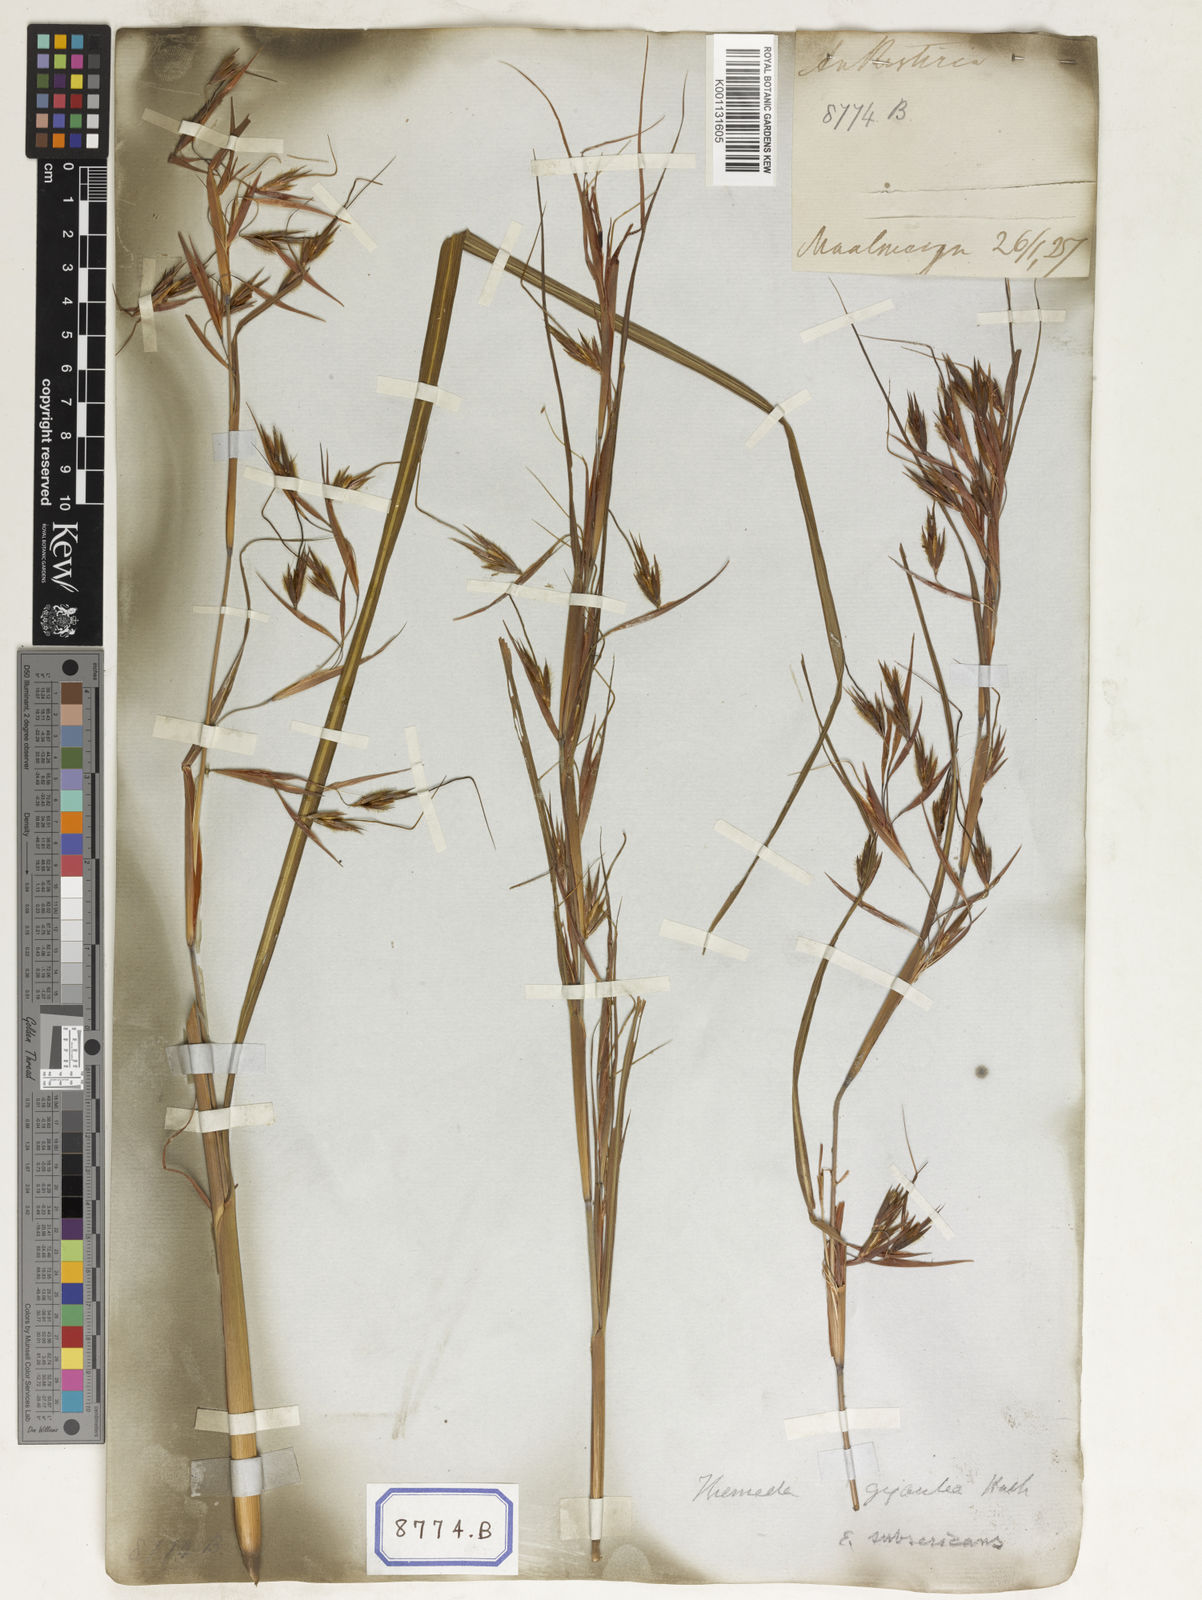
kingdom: Plantae
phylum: Tracheophyta
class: Liliopsida
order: Poales
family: Poaceae
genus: Themeda
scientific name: Themeda
